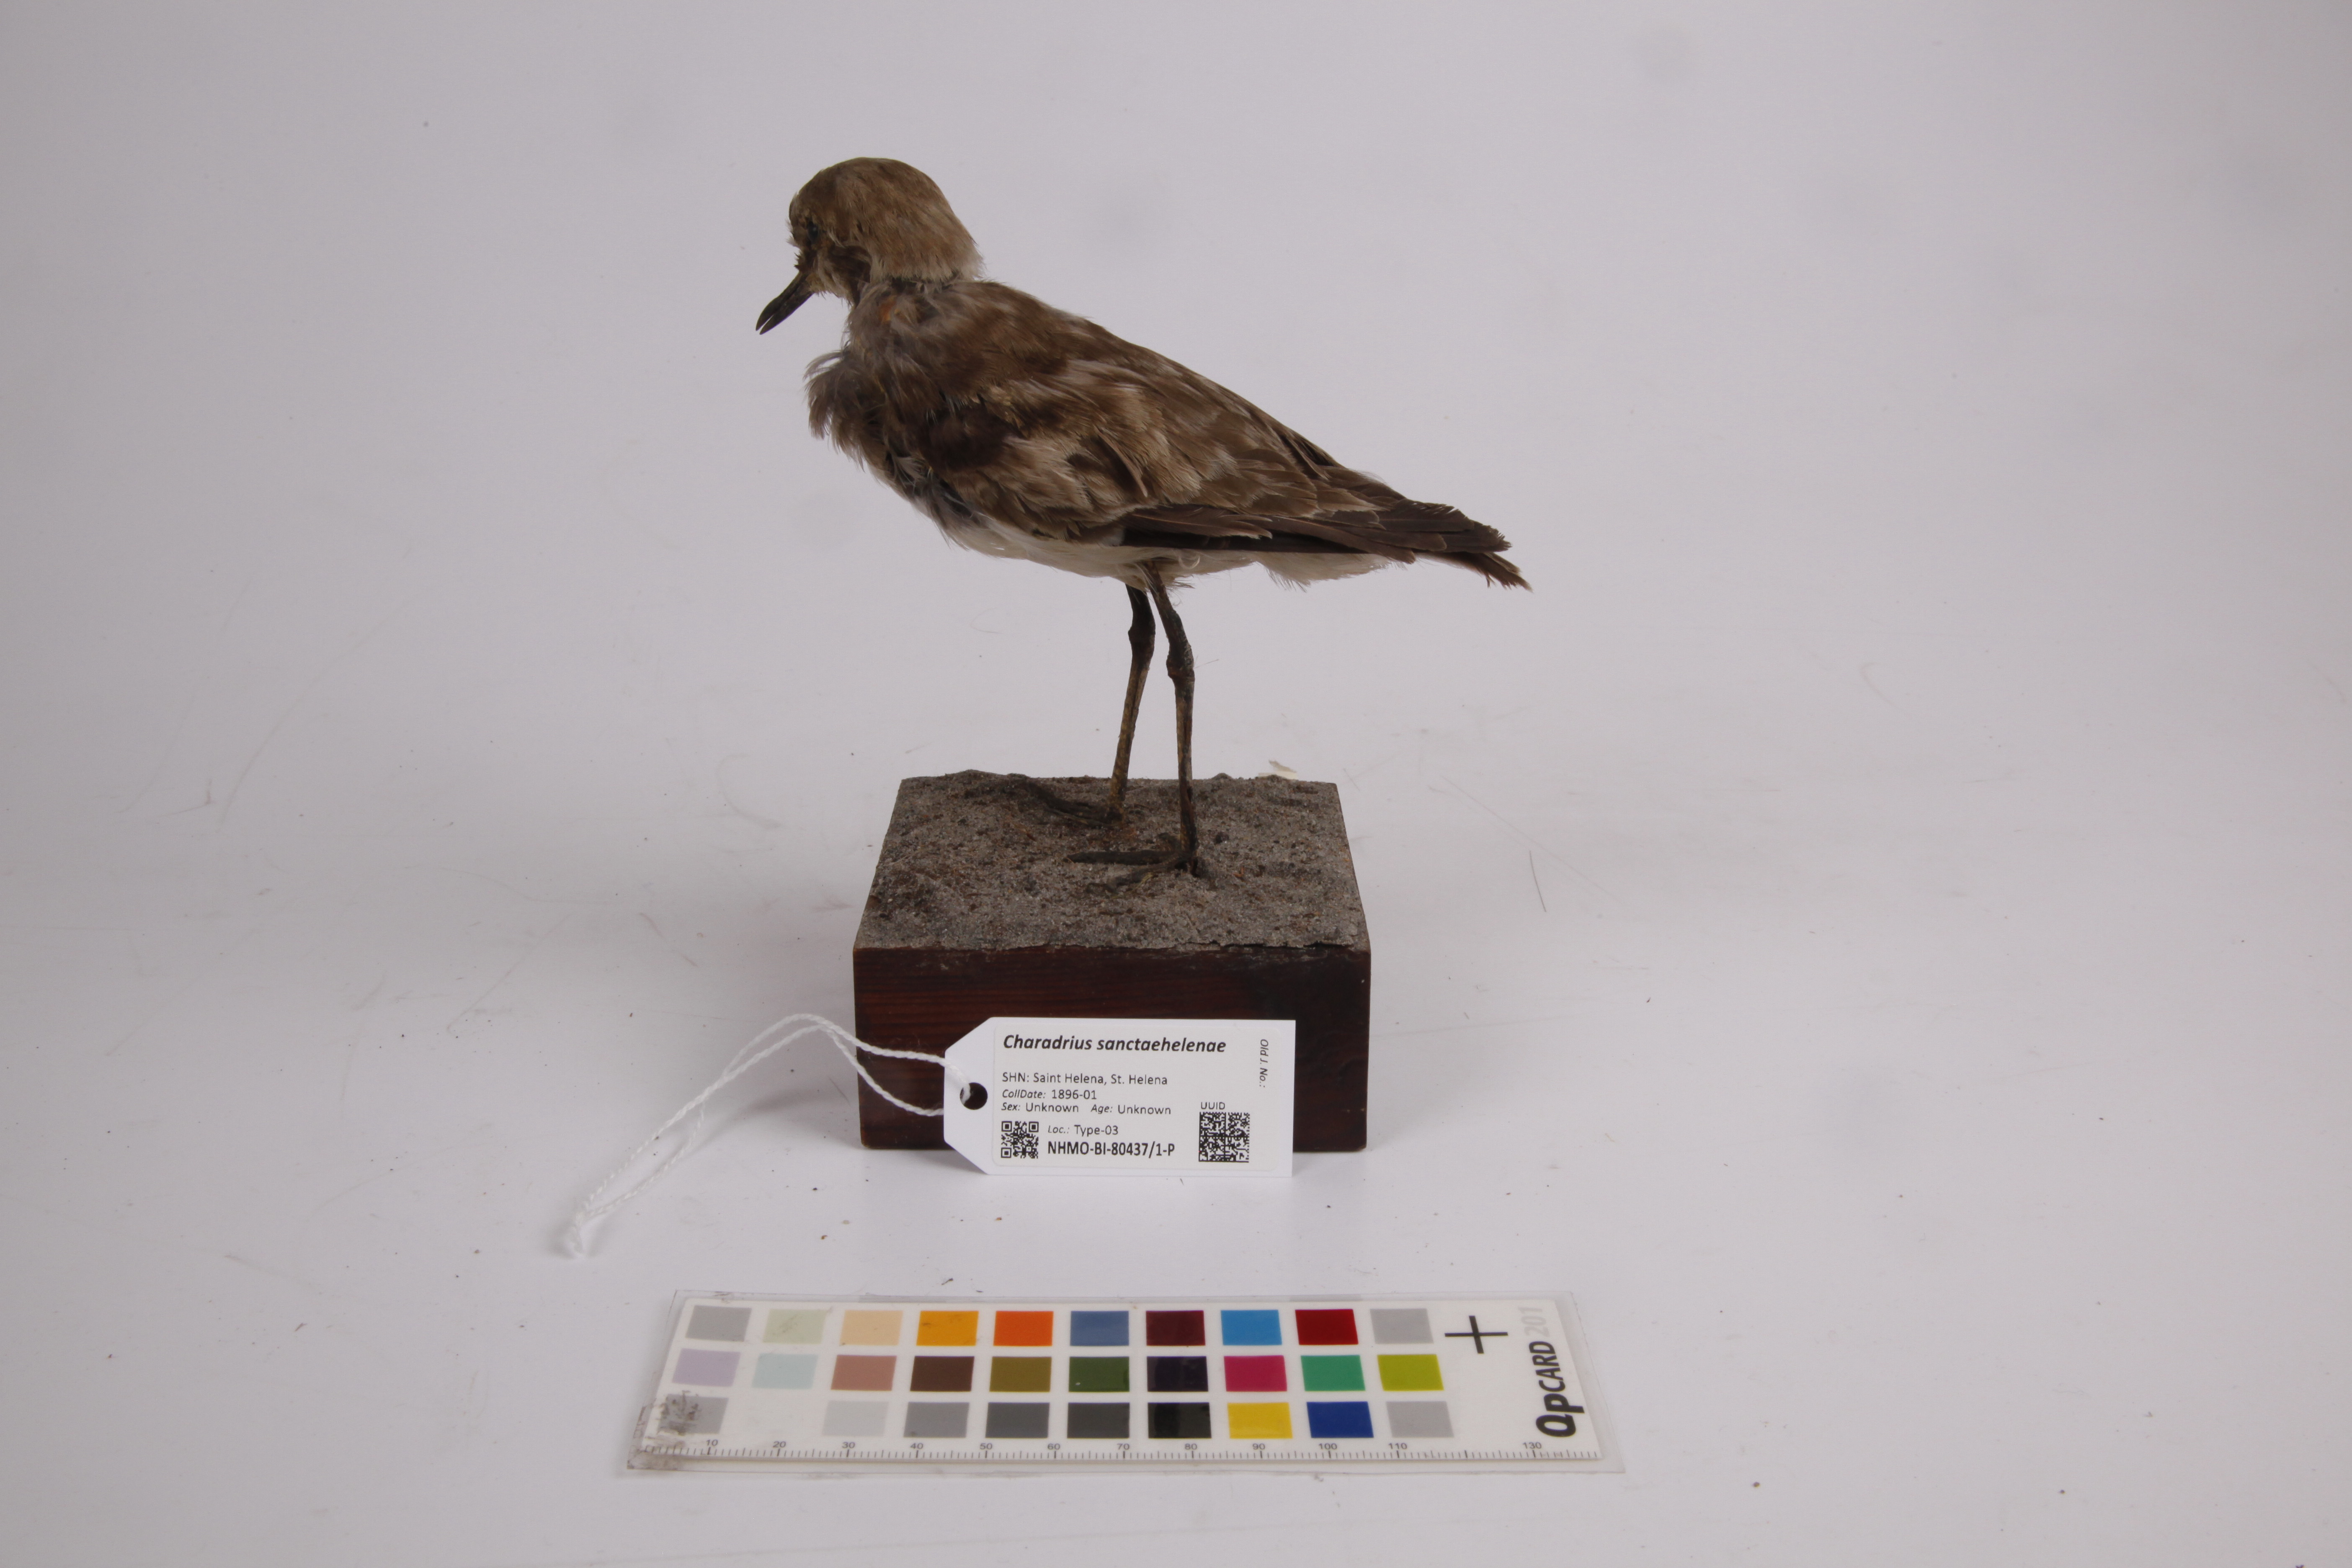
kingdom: Animalia
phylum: Chordata
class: Aves
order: Charadriiformes
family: Charadriidae
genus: Charadrius
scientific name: Charadrius sanctaehelenae
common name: St. helena plover
